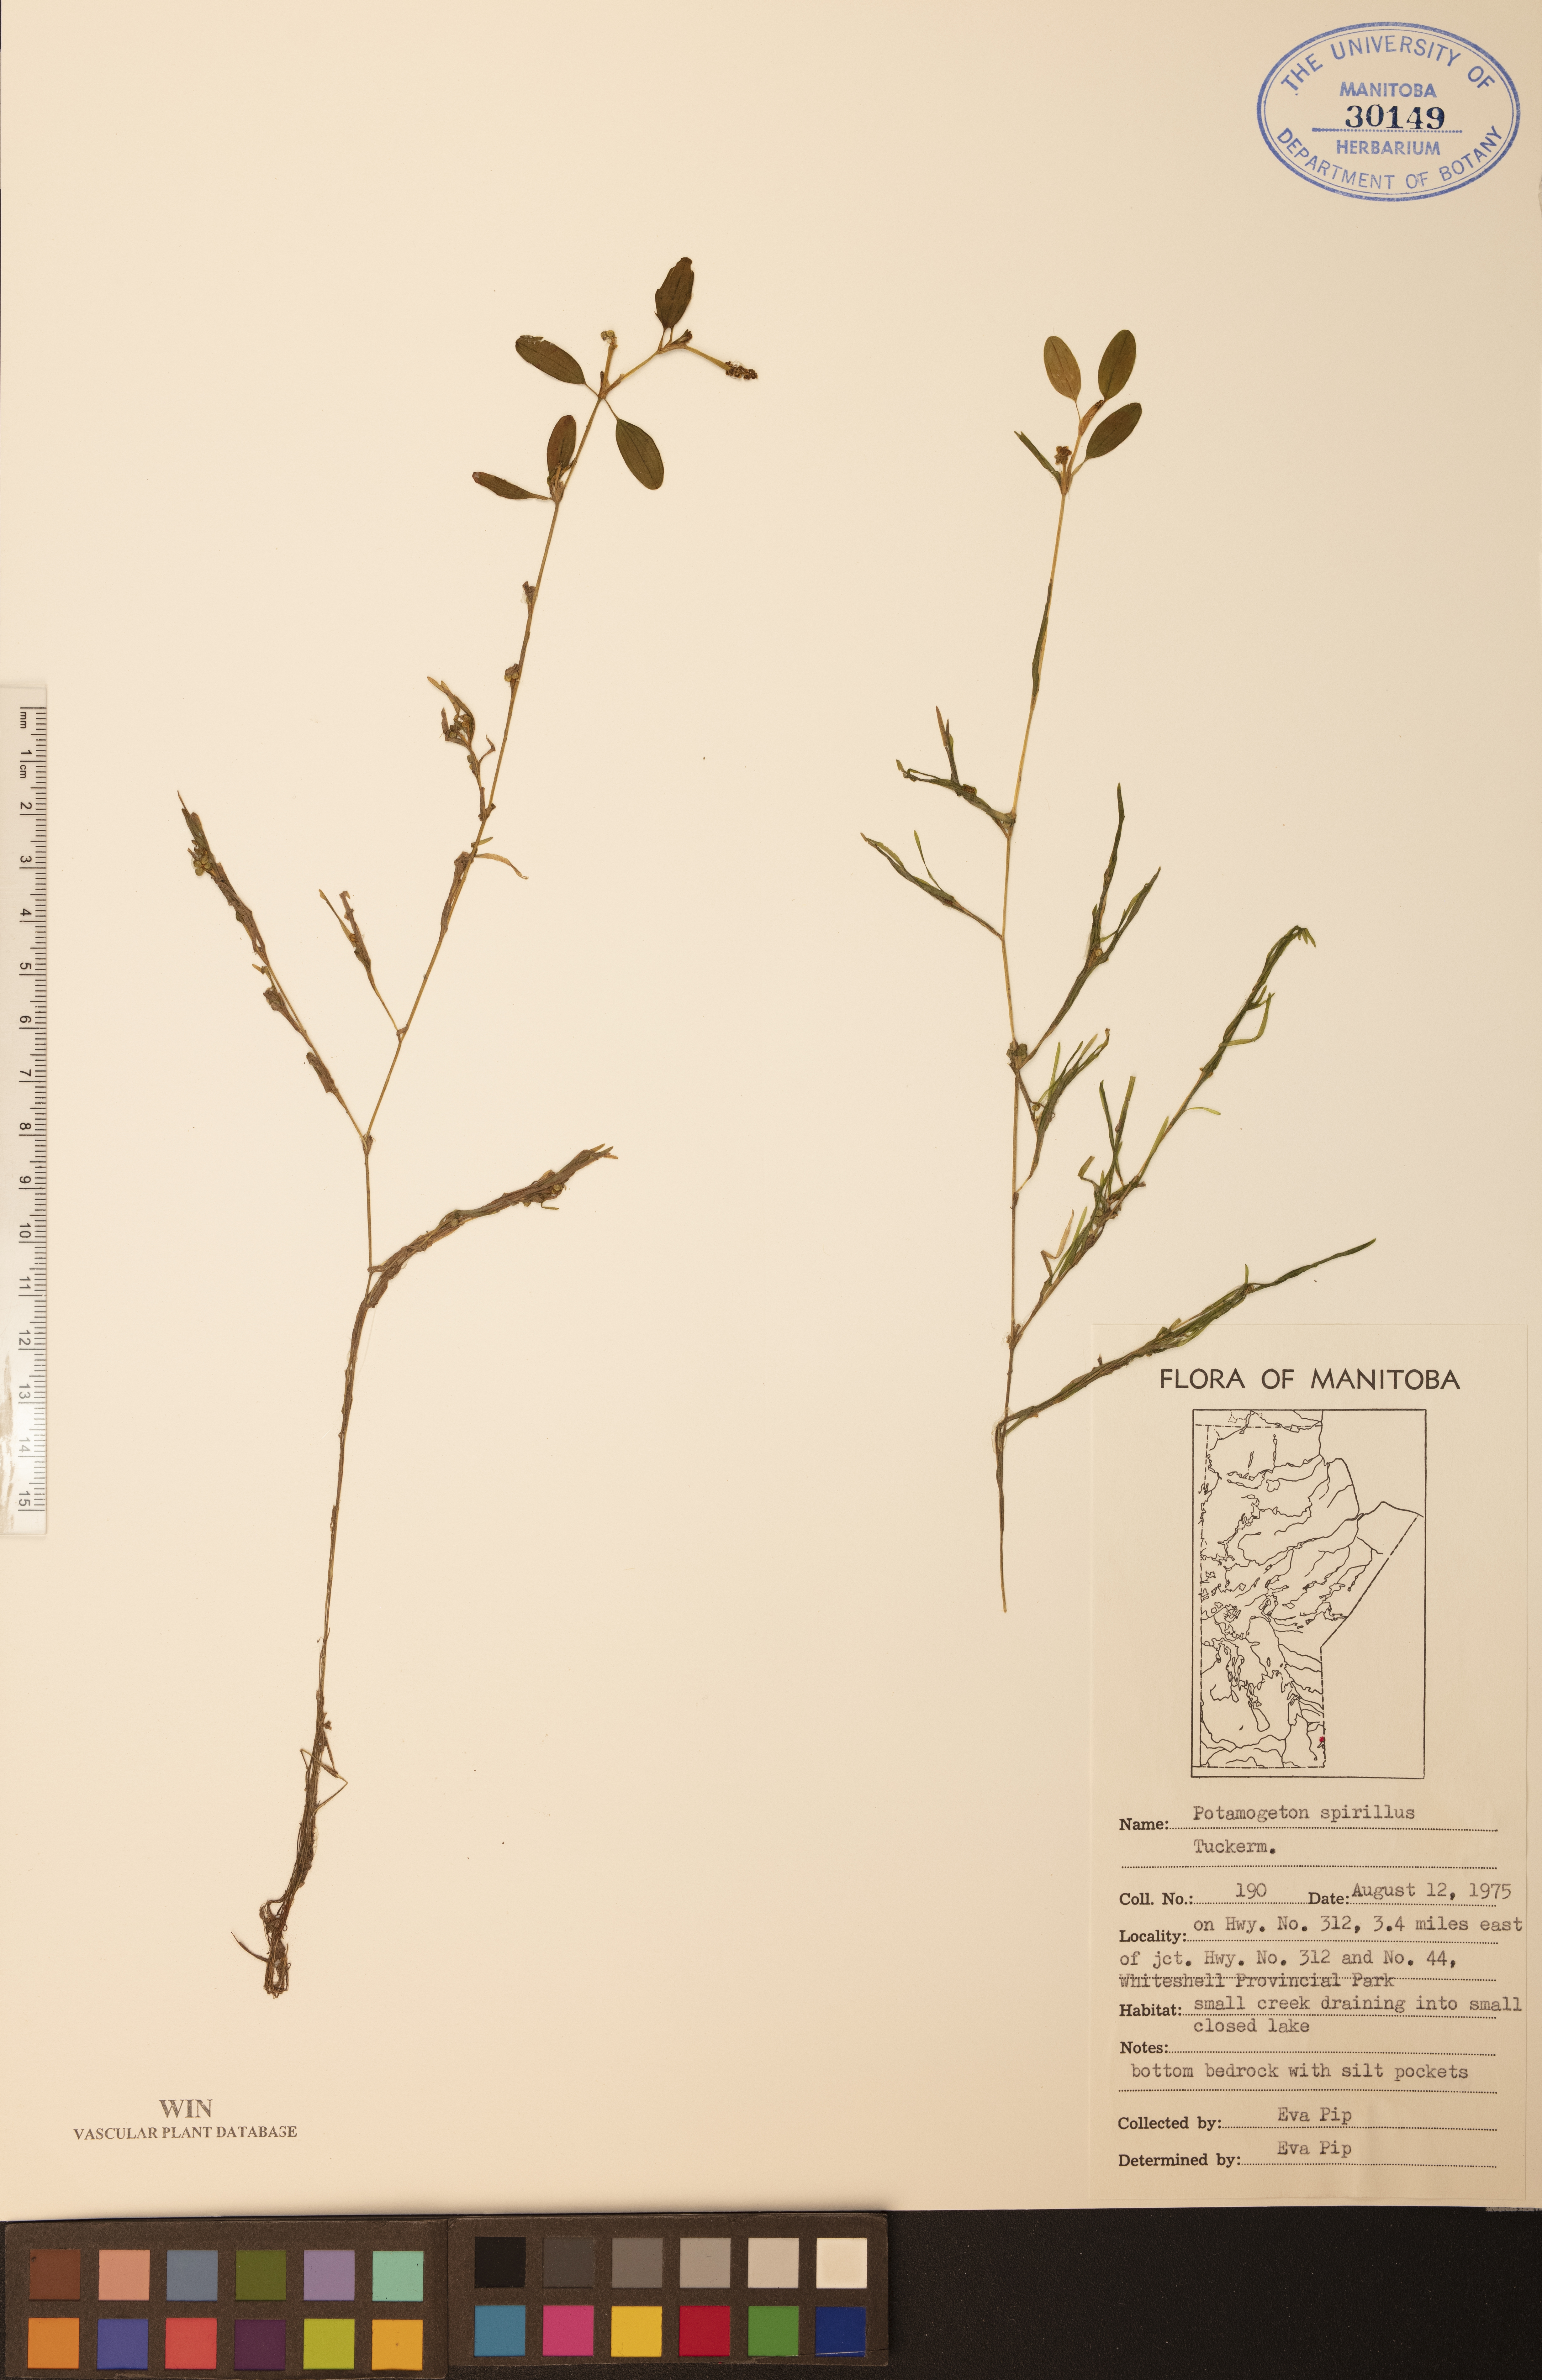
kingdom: Plantae
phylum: Tracheophyta
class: Liliopsida
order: Alismatales
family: Potamogetonaceae
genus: Potamogeton
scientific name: Potamogeton spirillus
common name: Northern snail-seed pondweed
